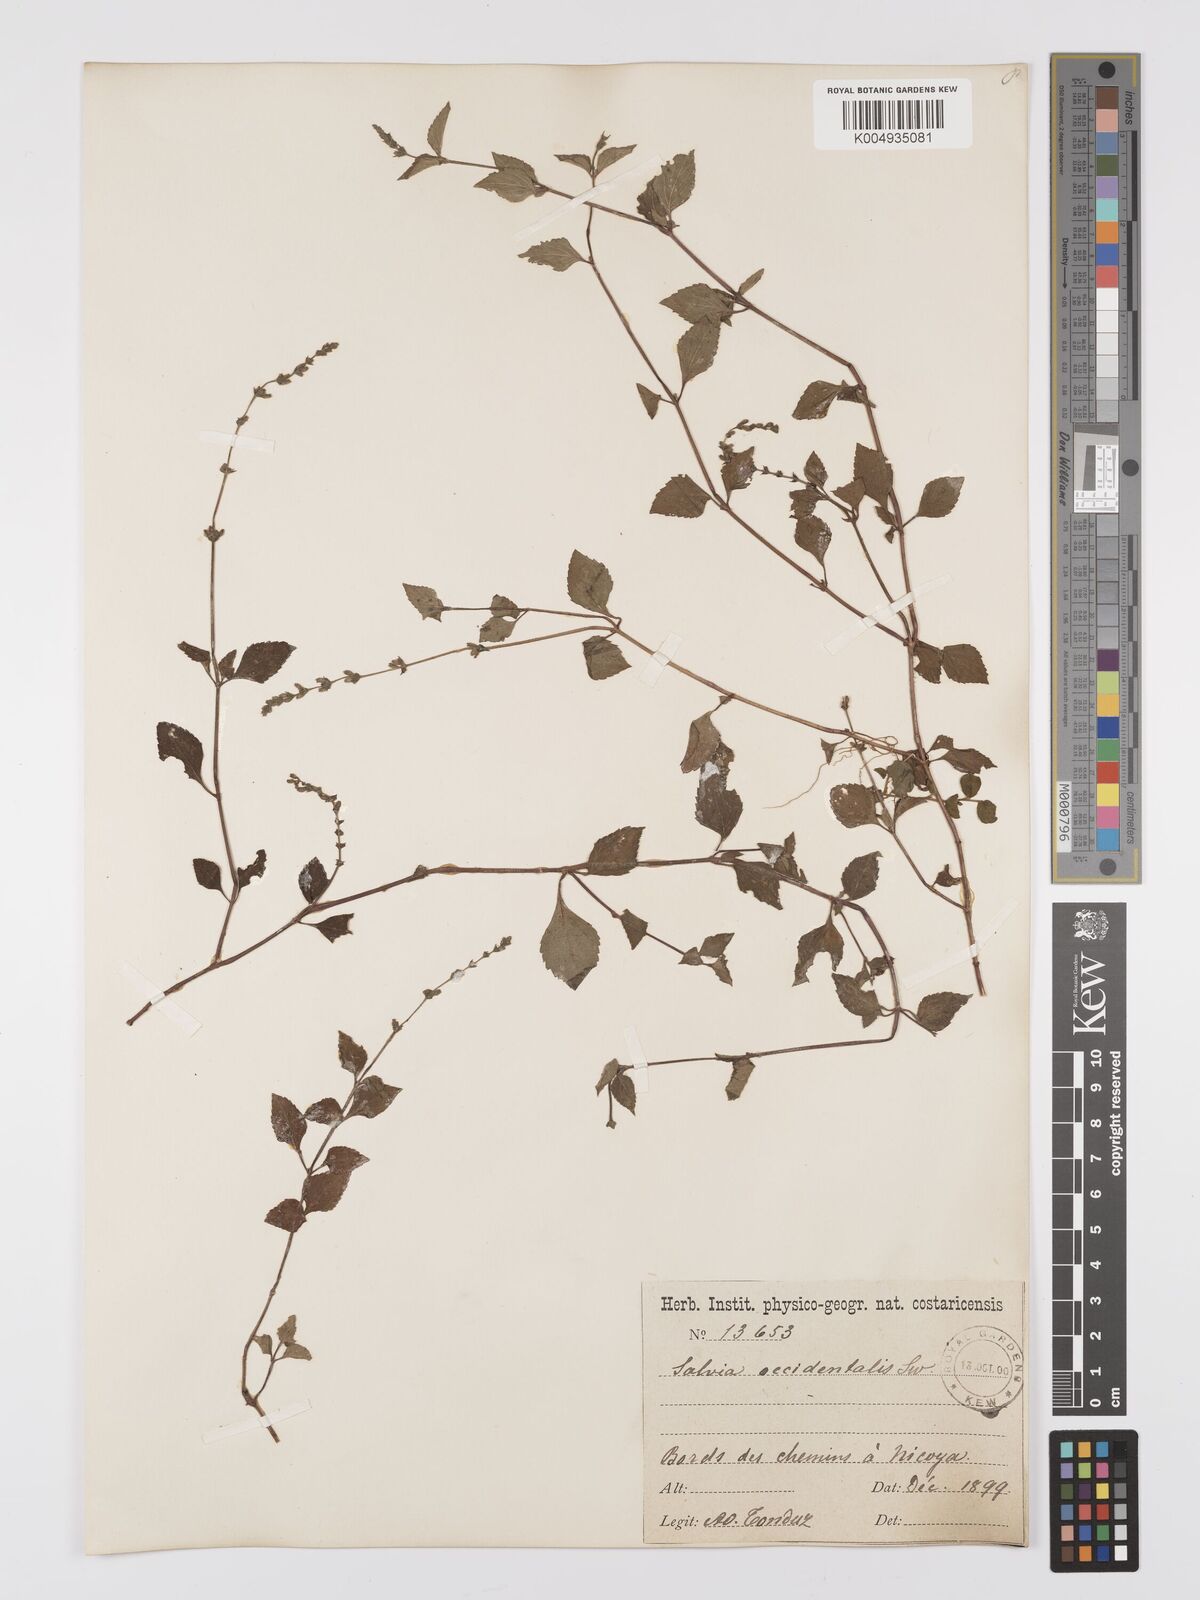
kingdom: Plantae
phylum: Tracheophyta
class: Magnoliopsida
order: Lamiales
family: Lamiaceae
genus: Salvia
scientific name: Salvia occidentalis
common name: West indian sage
